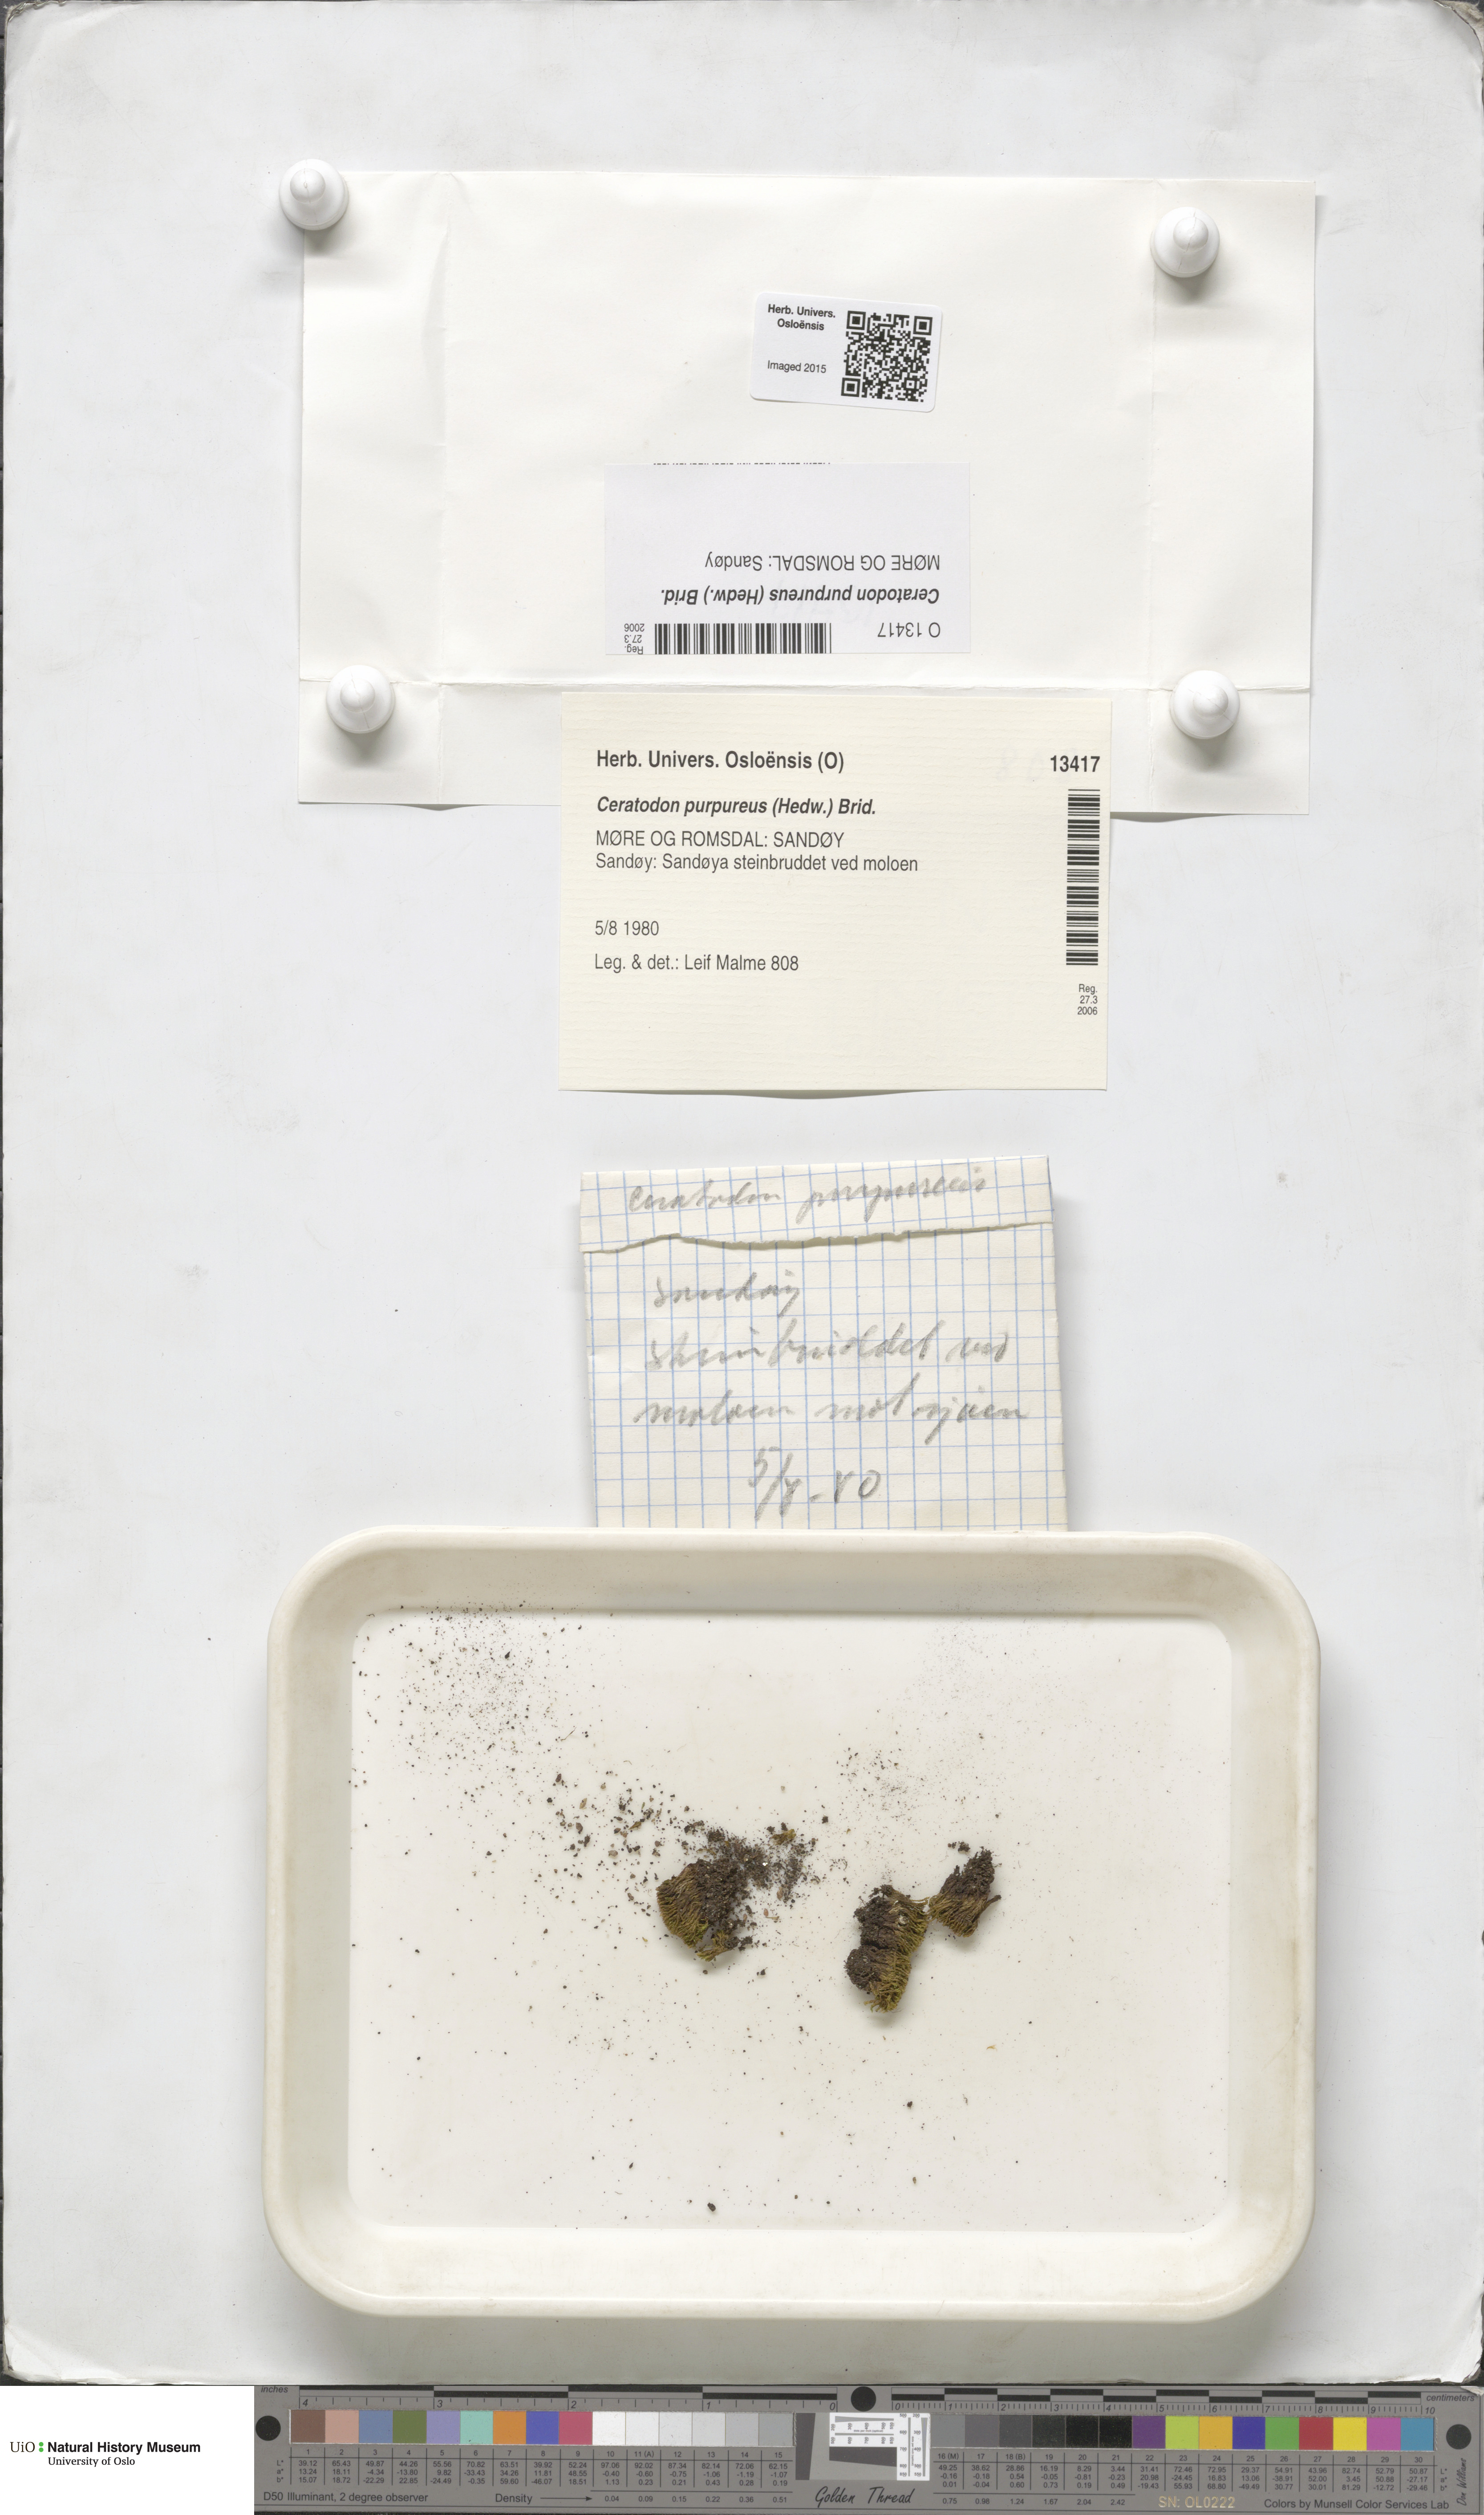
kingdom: Plantae
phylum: Bryophyta
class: Bryopsida
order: Dicranales
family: Ditrichaceae
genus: Ceratodon
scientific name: Ceratodon purpureus
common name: Redshank
